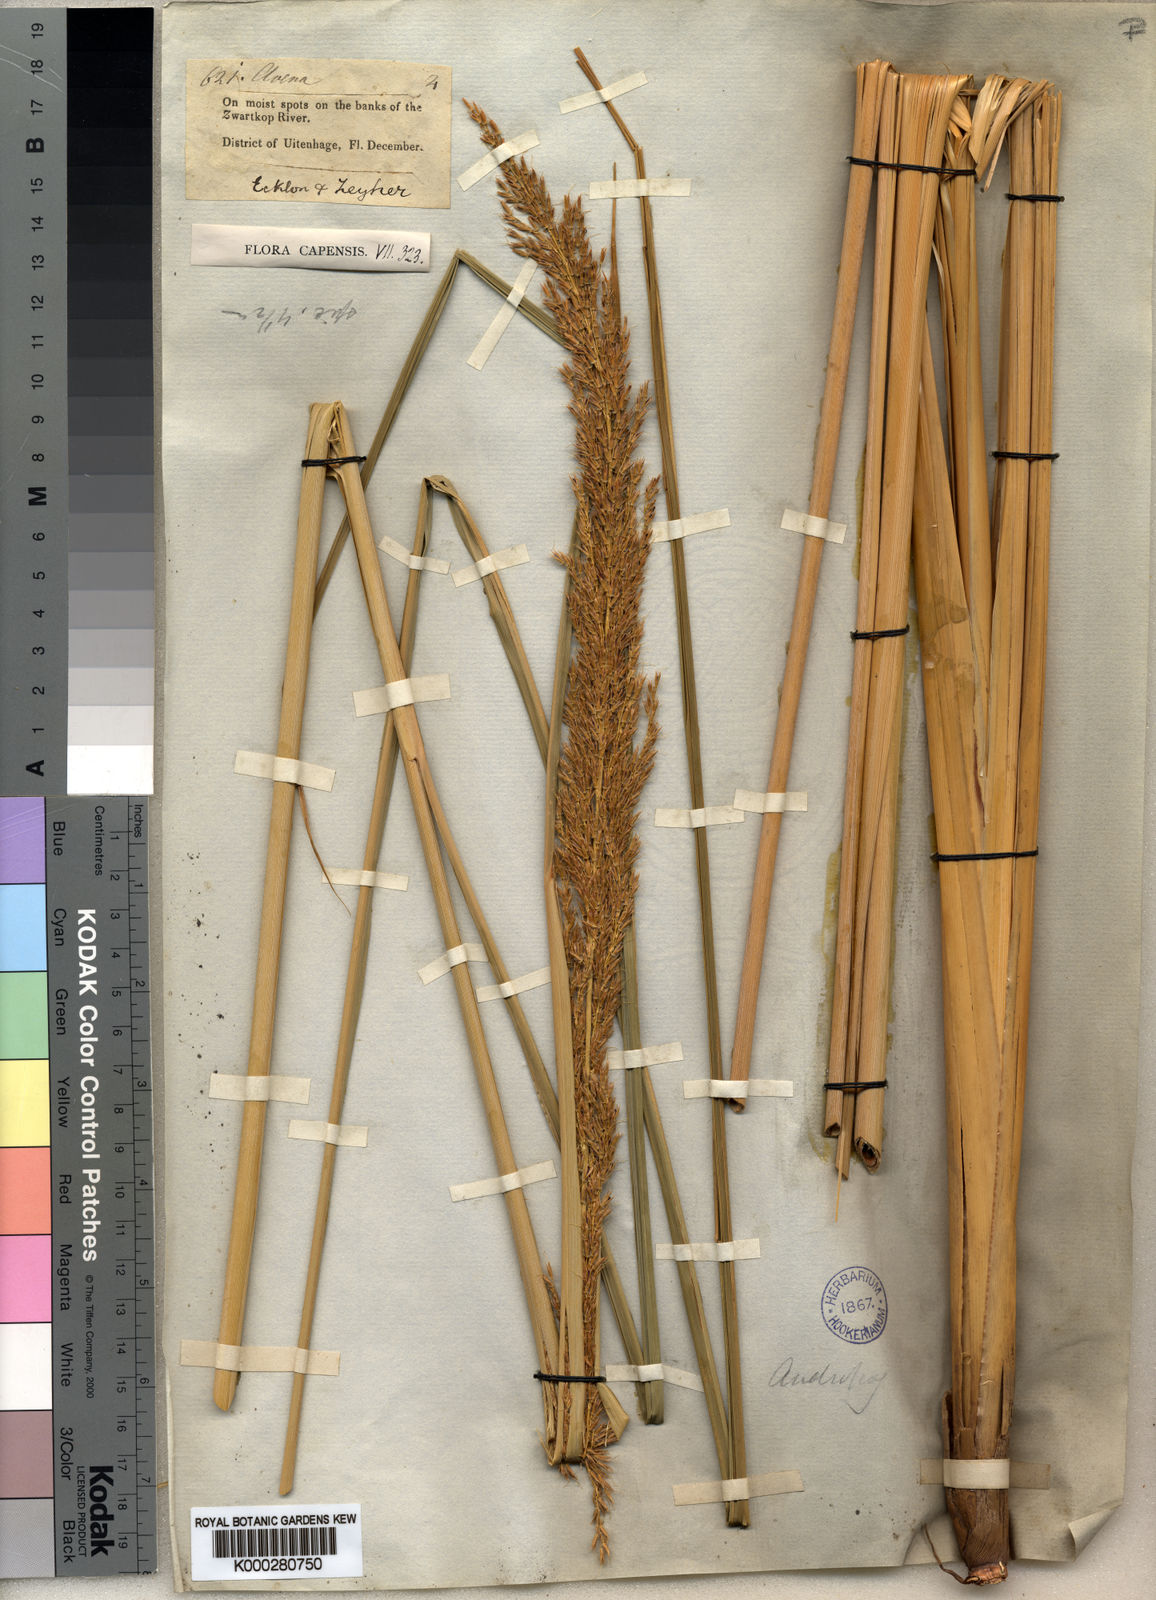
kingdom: Plantae
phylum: Tracheophyta
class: Liliopsida
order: Poales
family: Poaceae
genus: Miscanthus
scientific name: Miscanthus ecklonii
